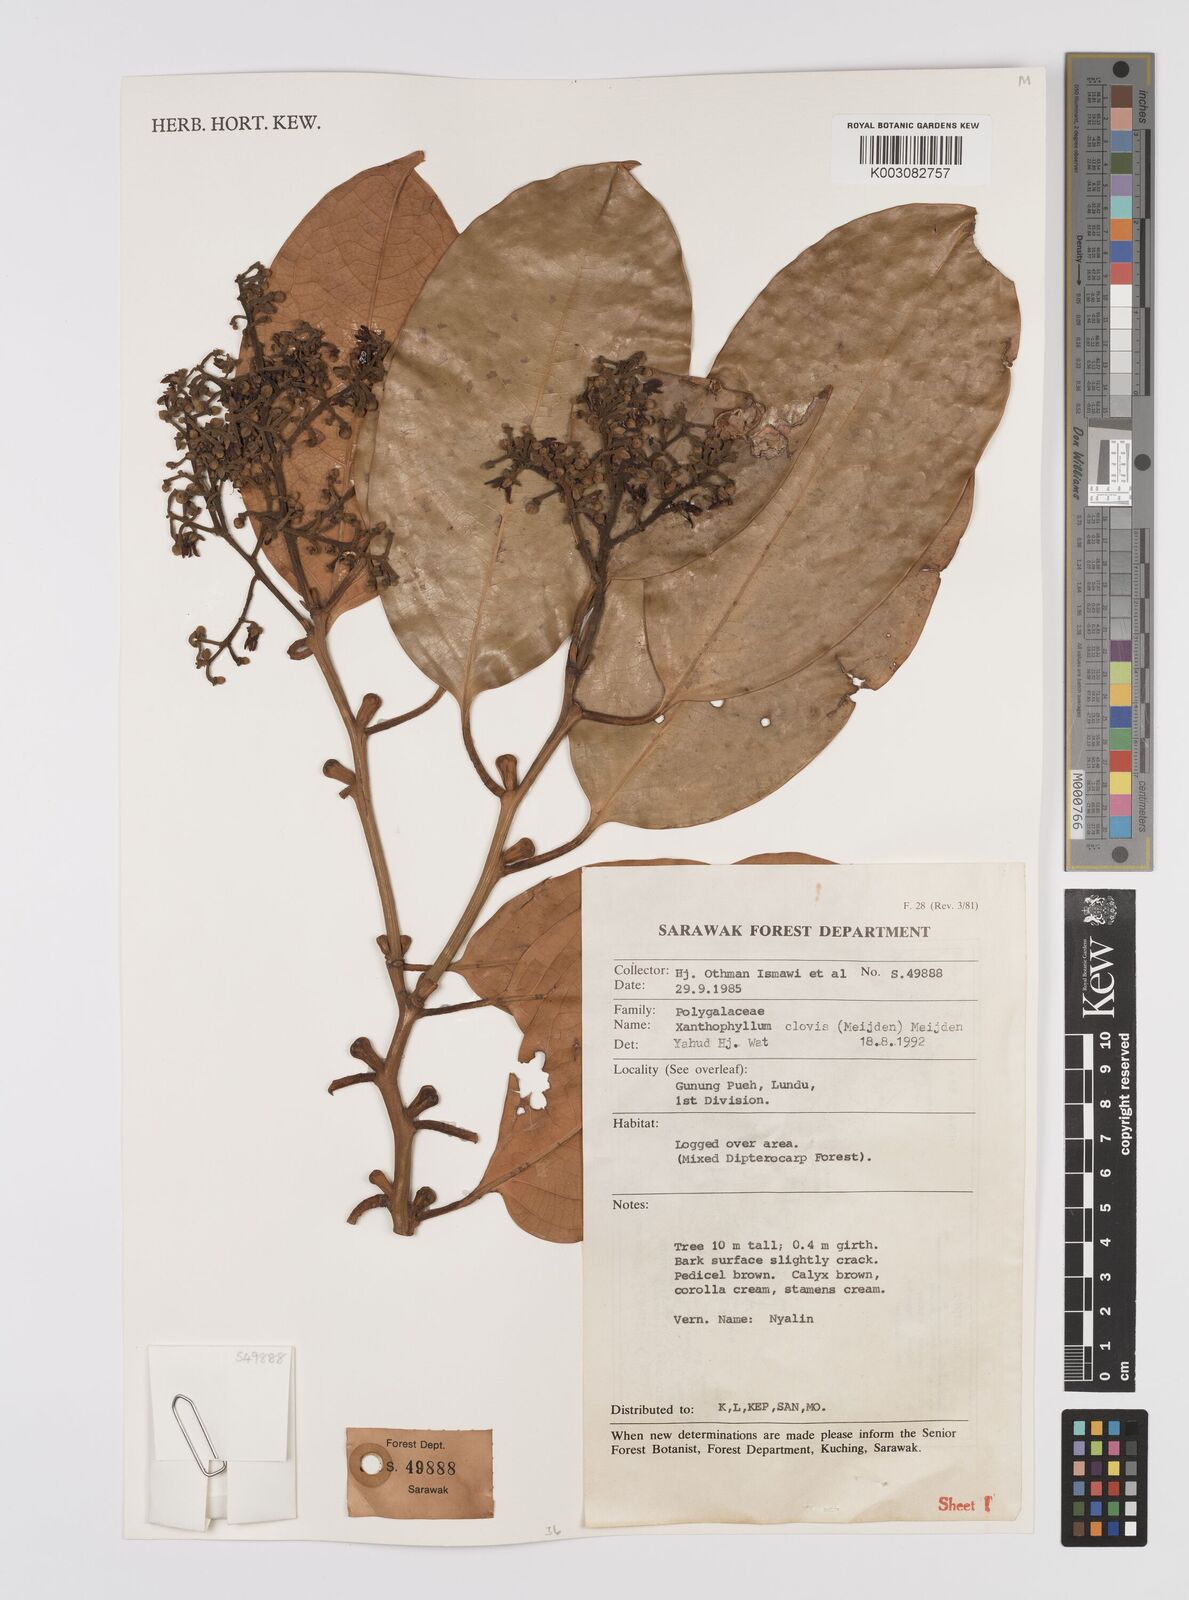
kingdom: Plantae
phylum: Tracheophyta
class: Magnoliopsida
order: Fabales
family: Polygalaceae
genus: Xanthophyllum
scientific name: Xanthophyllum clovis
